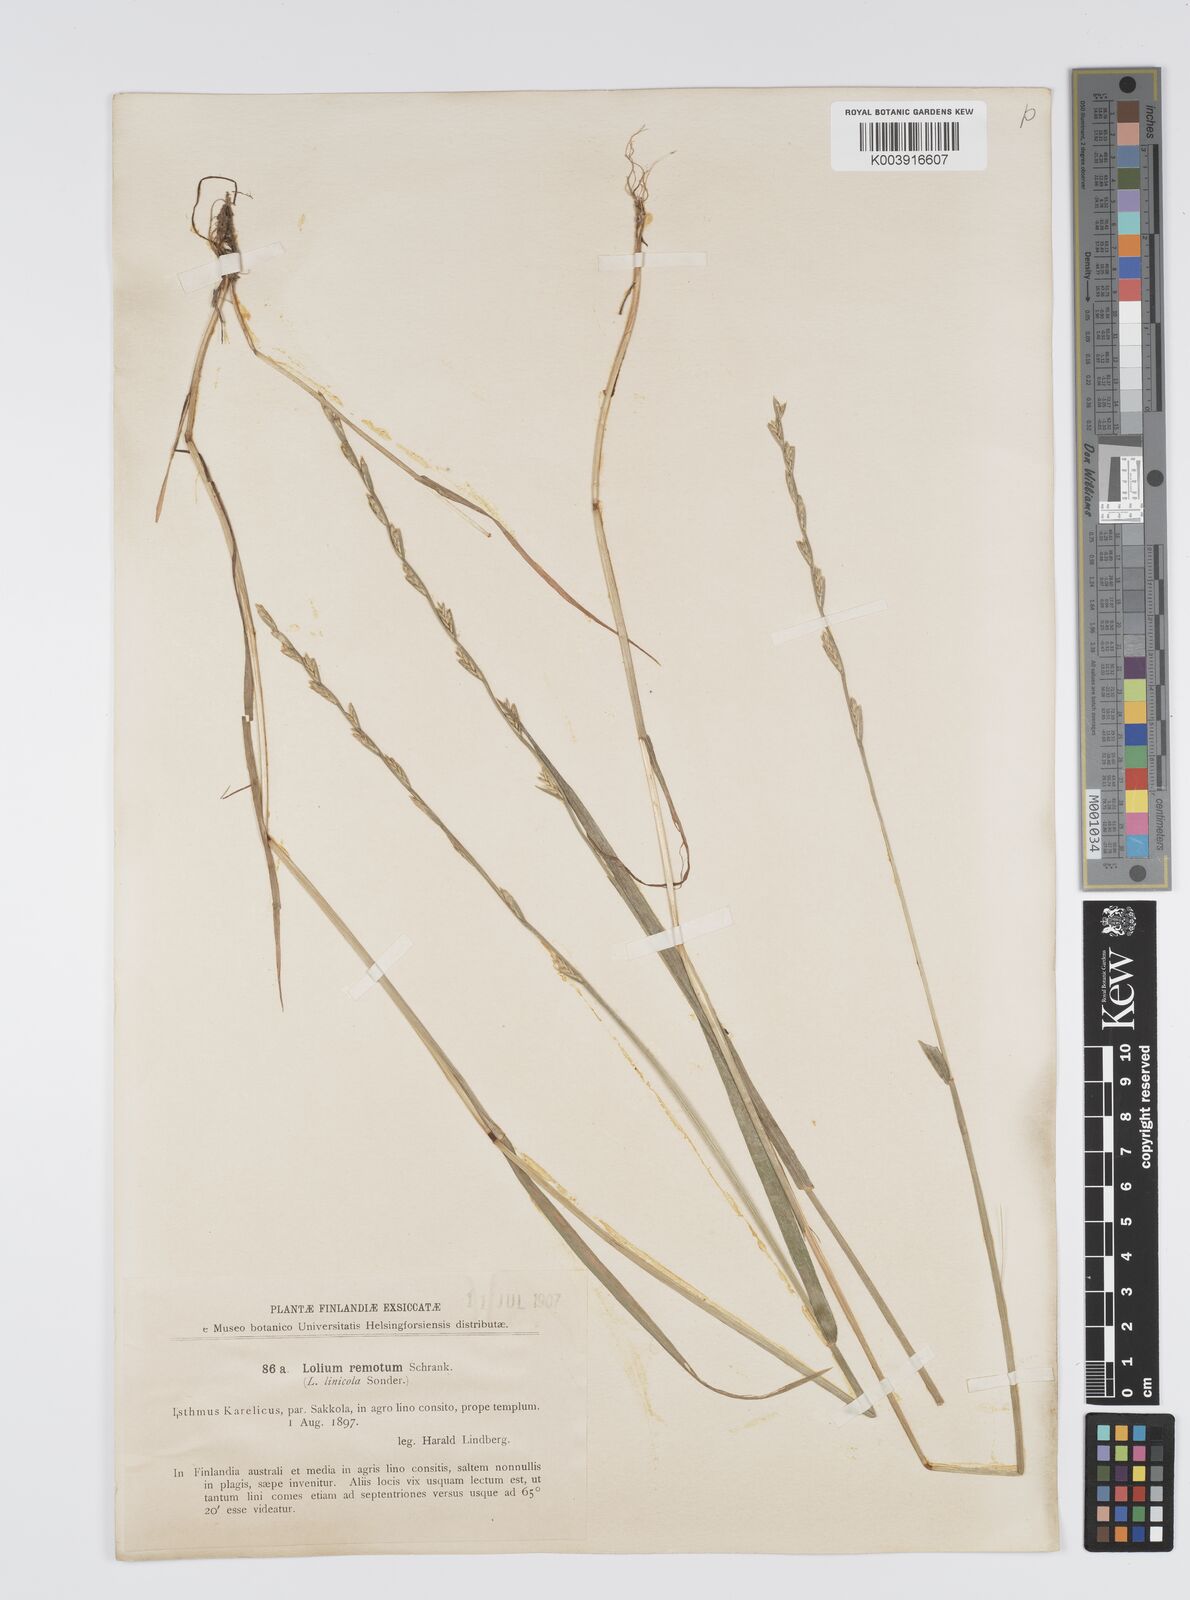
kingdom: Plantae
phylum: Tracheophyta
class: Liliopsida
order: Poales
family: Poaceae
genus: Lolium
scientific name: Lolium remotum
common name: Flaxfield rye-grass
